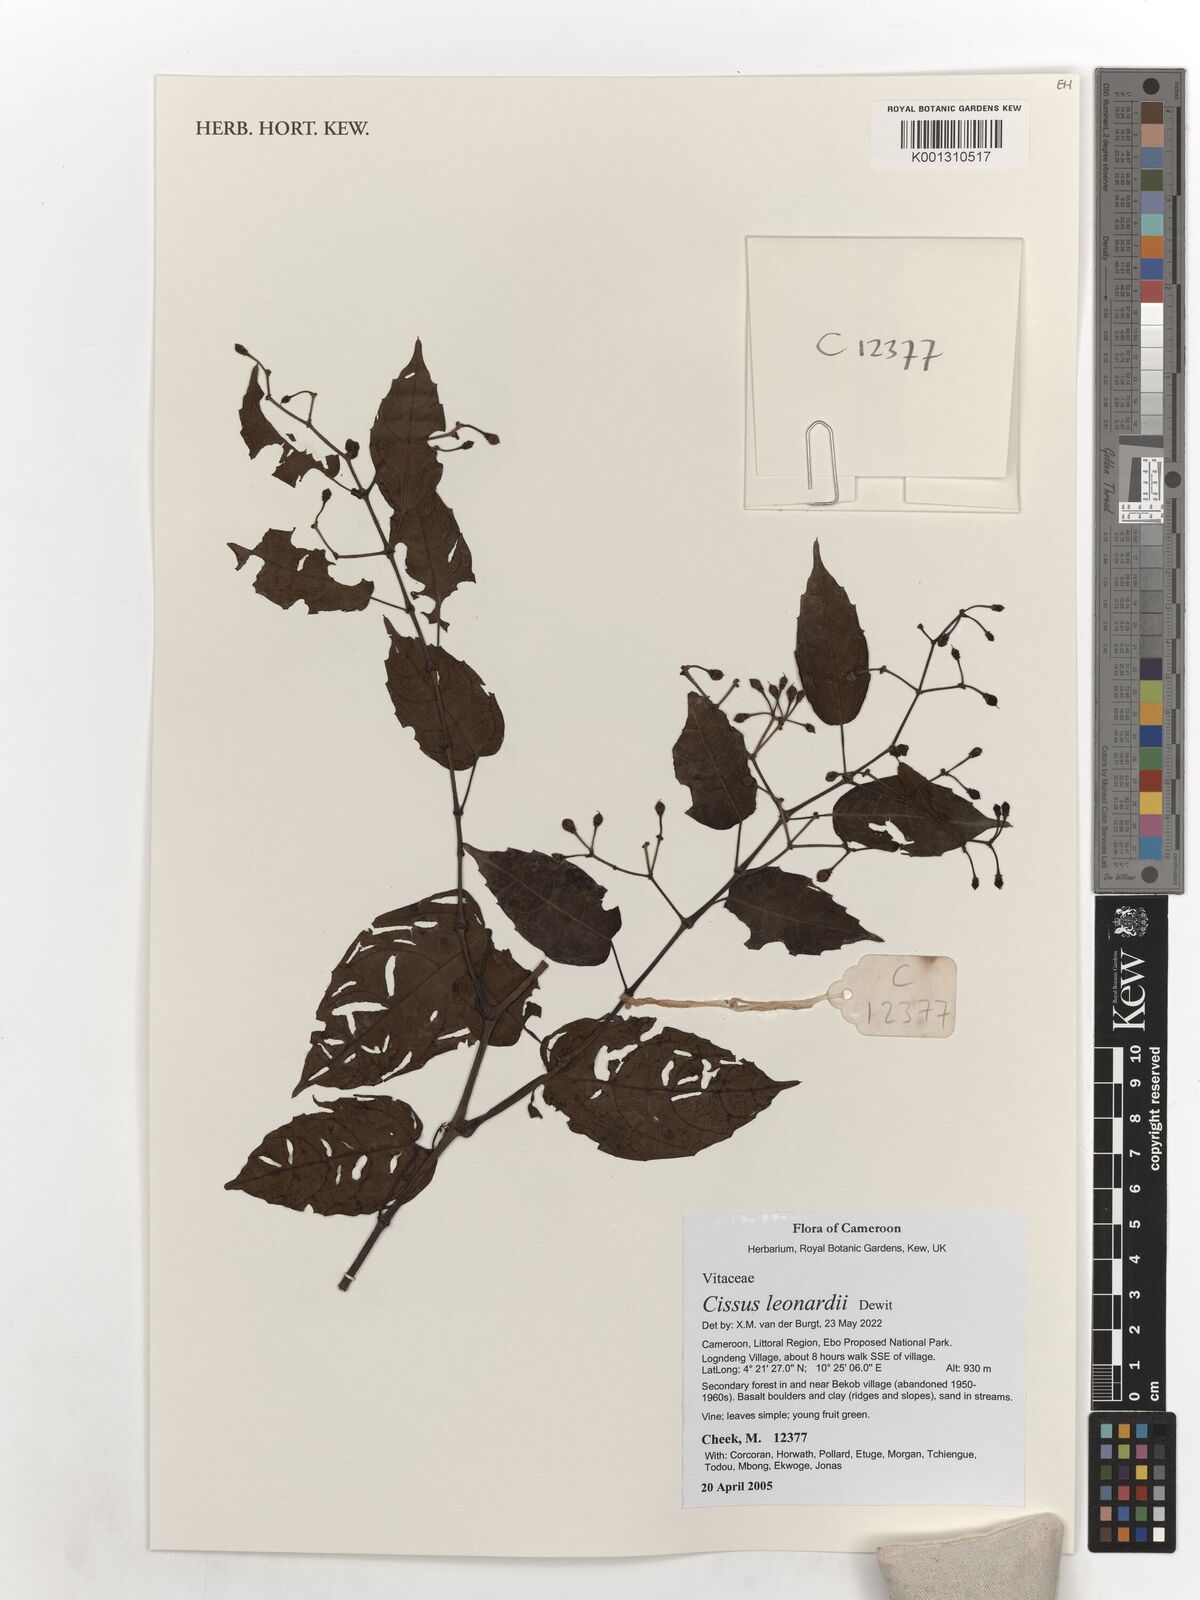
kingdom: Plantae
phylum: Tracheophyta
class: Magnoliopsida
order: Vitales
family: Vitaceae
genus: Cissus
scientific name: Cissus leonardii
